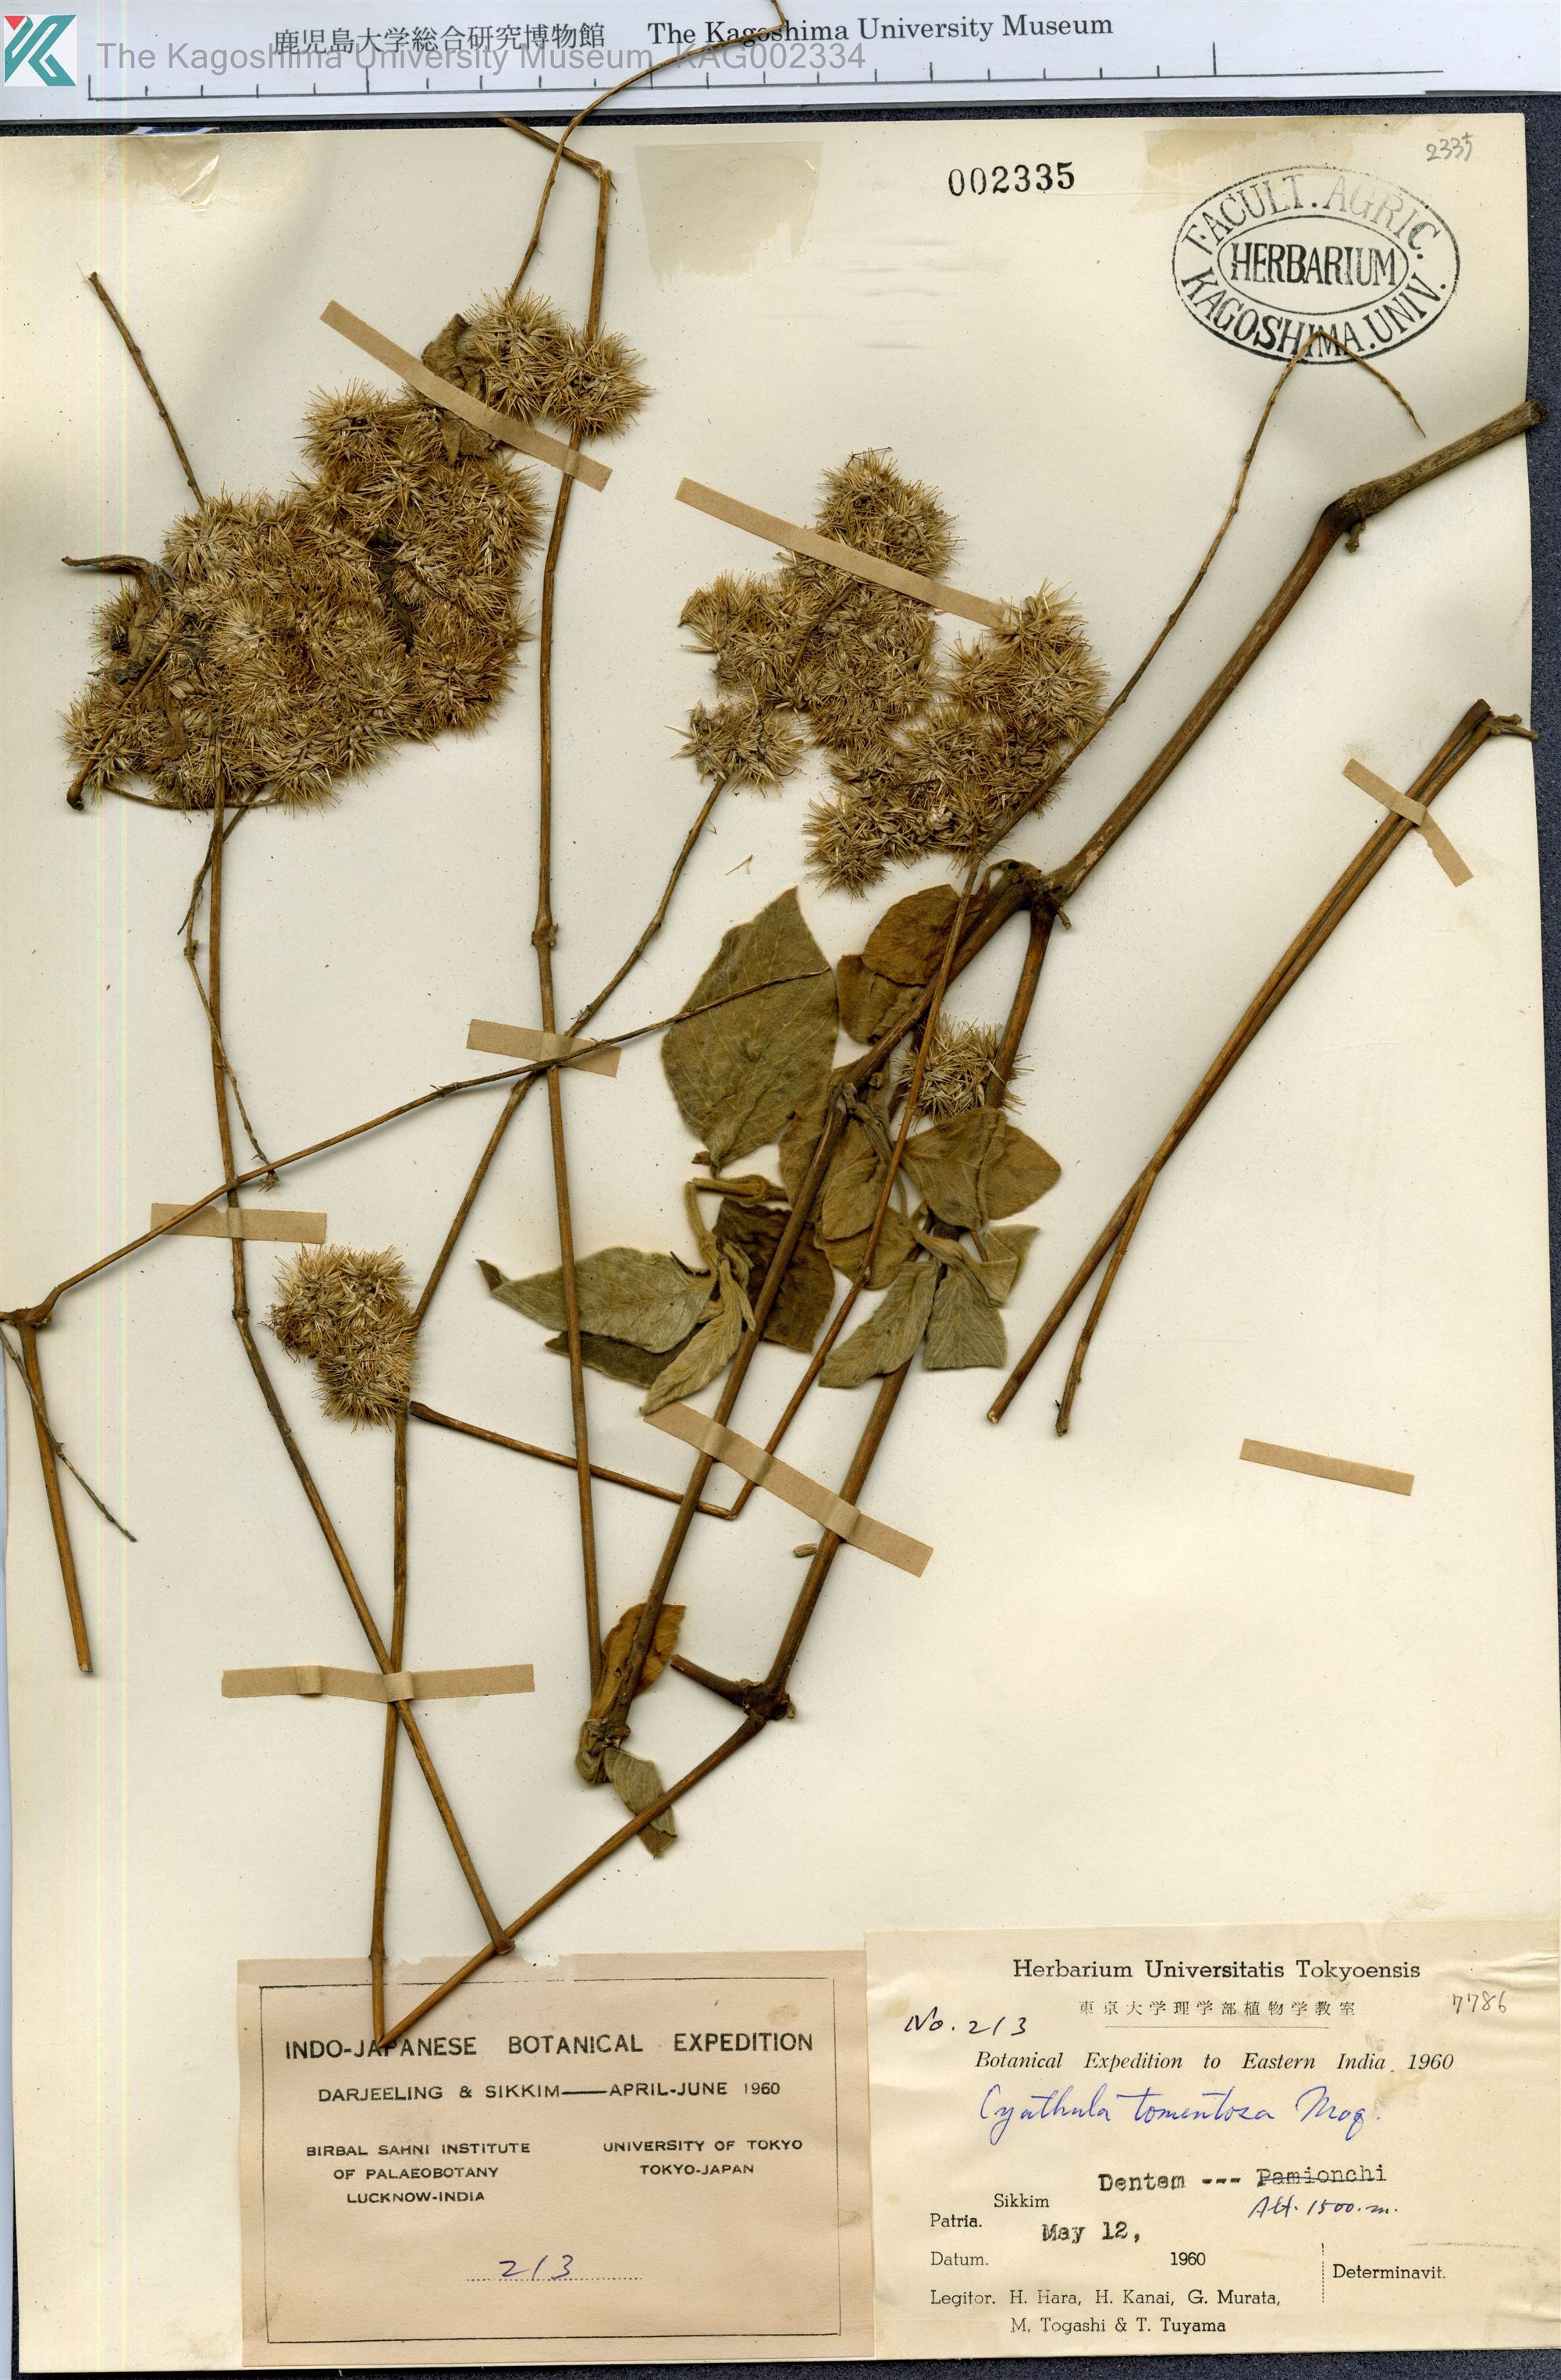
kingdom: Plantae
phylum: Tracheophyta
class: Liliopsida
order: Asparagales
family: Hypoxidaceae
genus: Curculigo
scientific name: Curculigo orchioides
